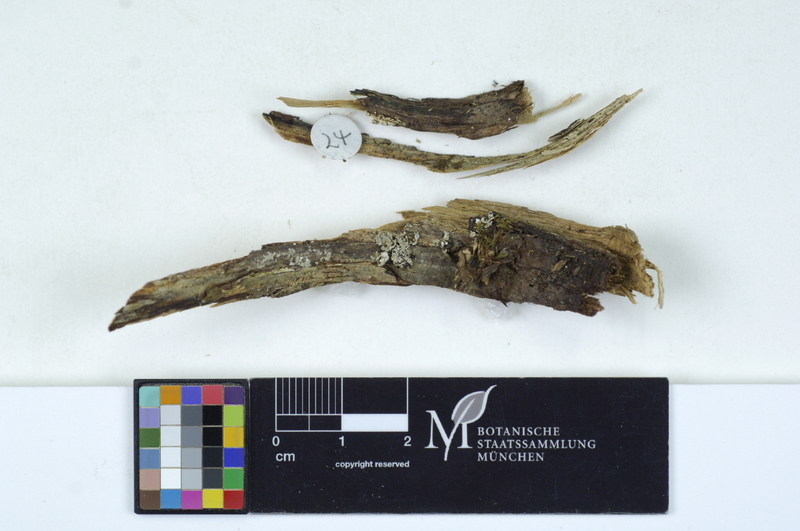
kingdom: Plantae
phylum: Tracheophyta
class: Pinopsida
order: Pinales
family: Cupressaceae
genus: Juniperus
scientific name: Juniperus
